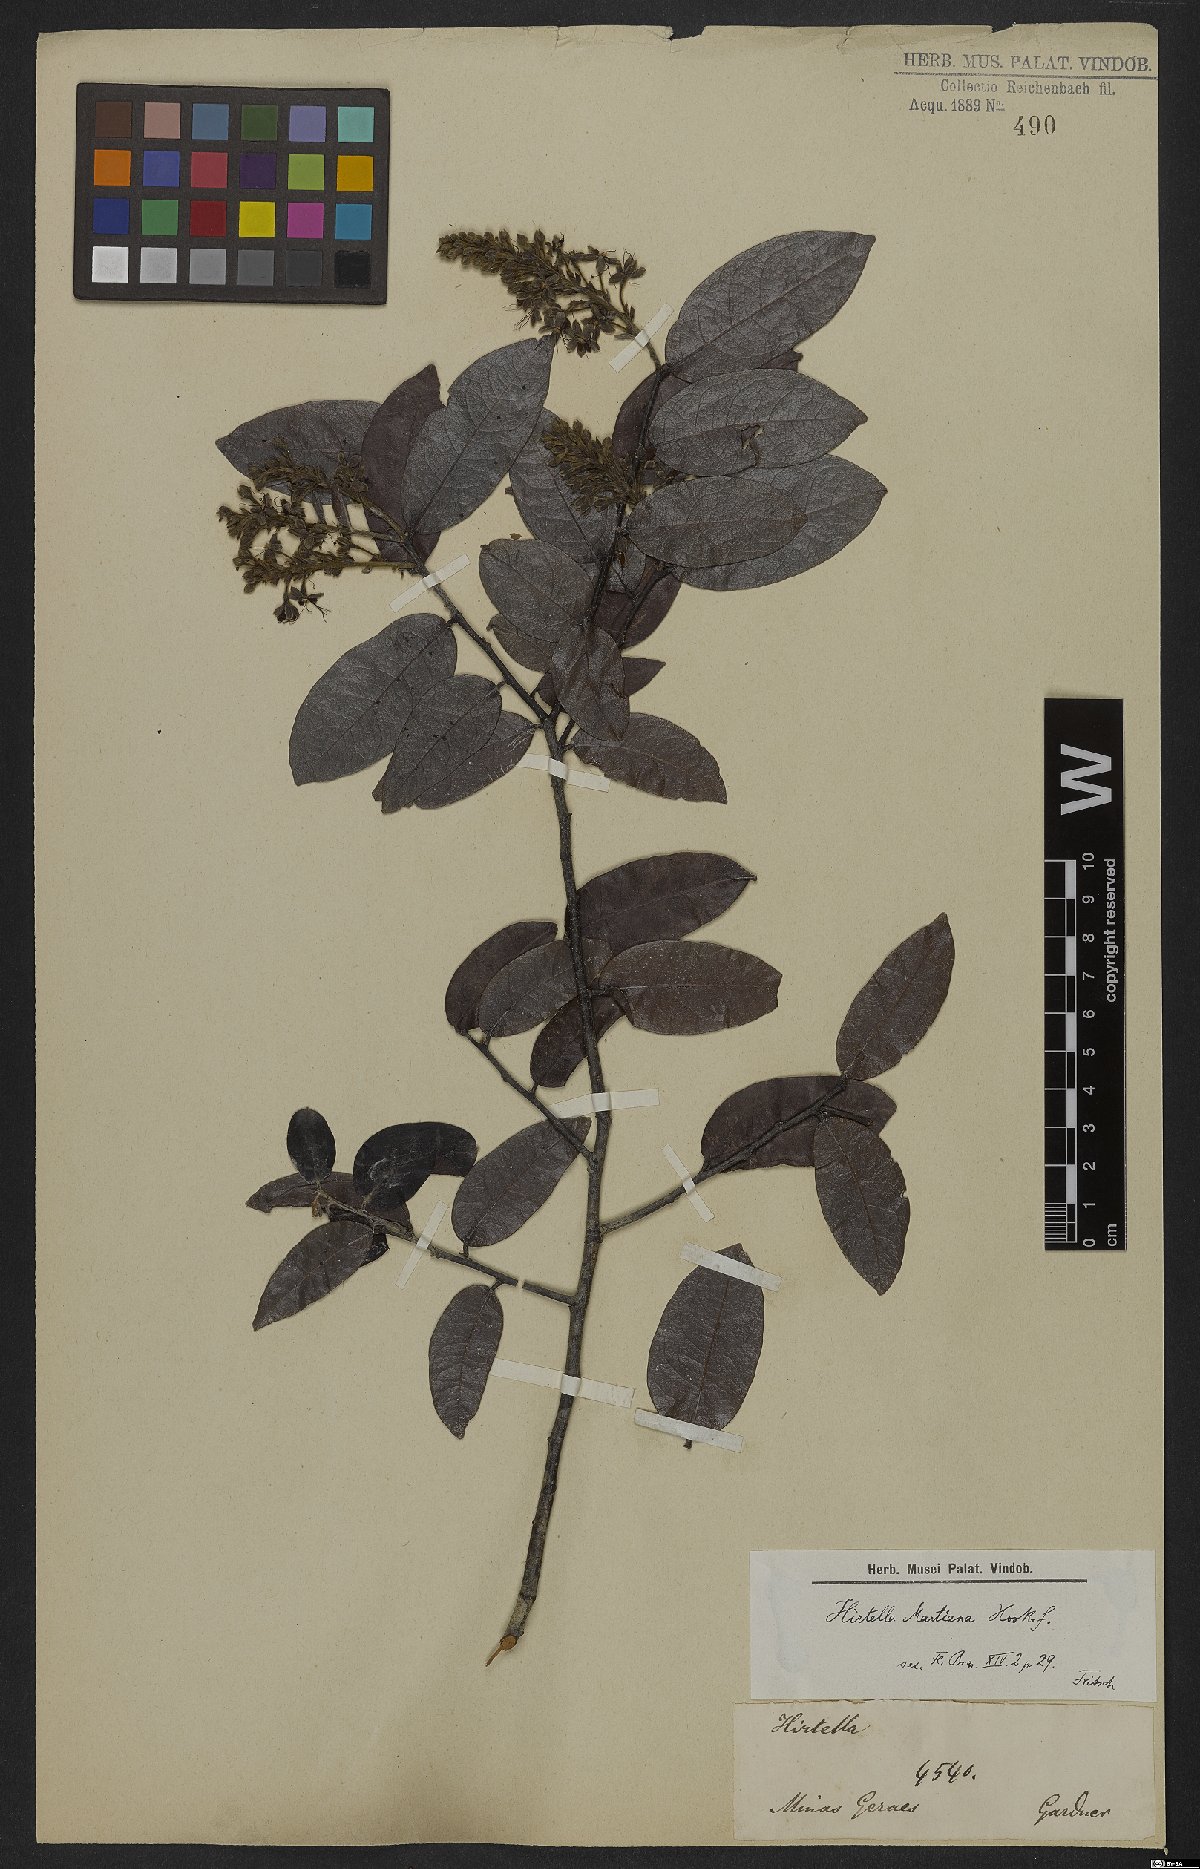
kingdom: Plantae
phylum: Tracheophyta
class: Magnoliopsida
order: Malpighiales
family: Chrysobalanaceae
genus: Hirtella
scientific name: Hirtella martiana
